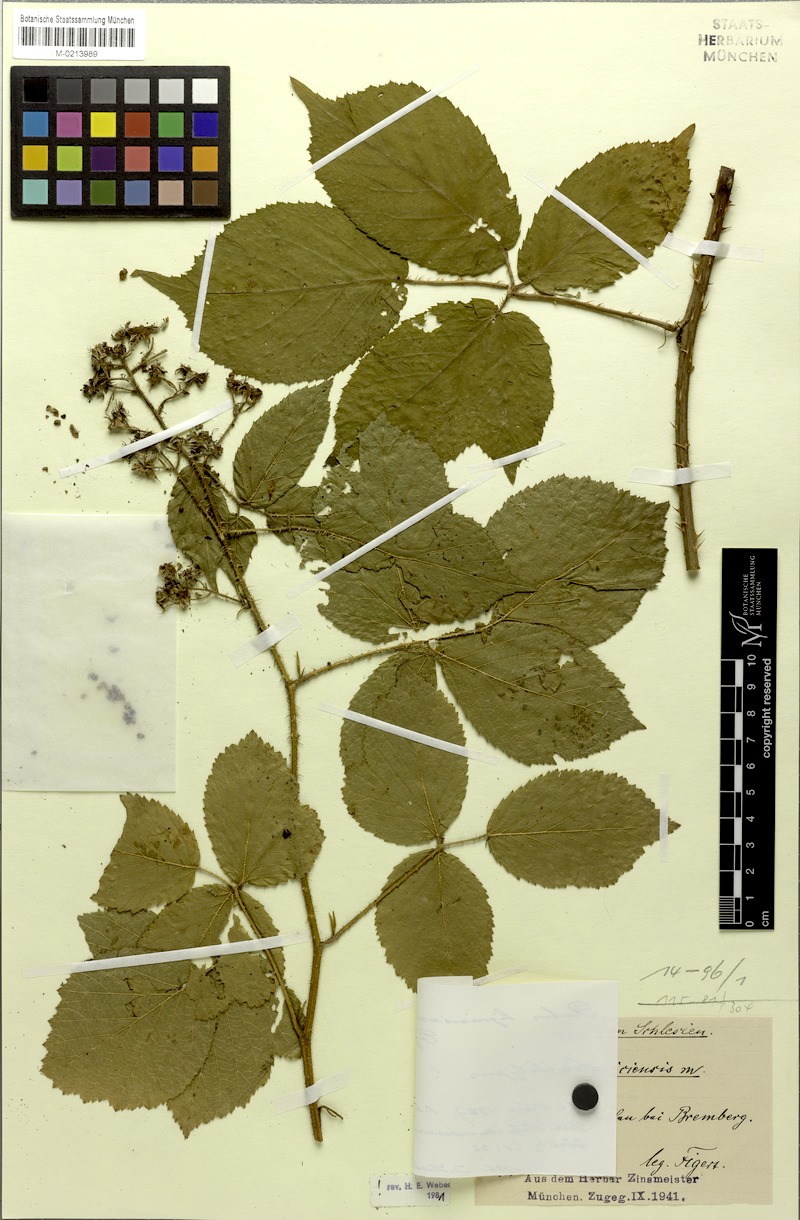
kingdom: Plantae
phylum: Tracheophyta
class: Magnoliopsida
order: Rosales
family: Rosaceae
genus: Rubus
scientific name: Rubus lignicensis
